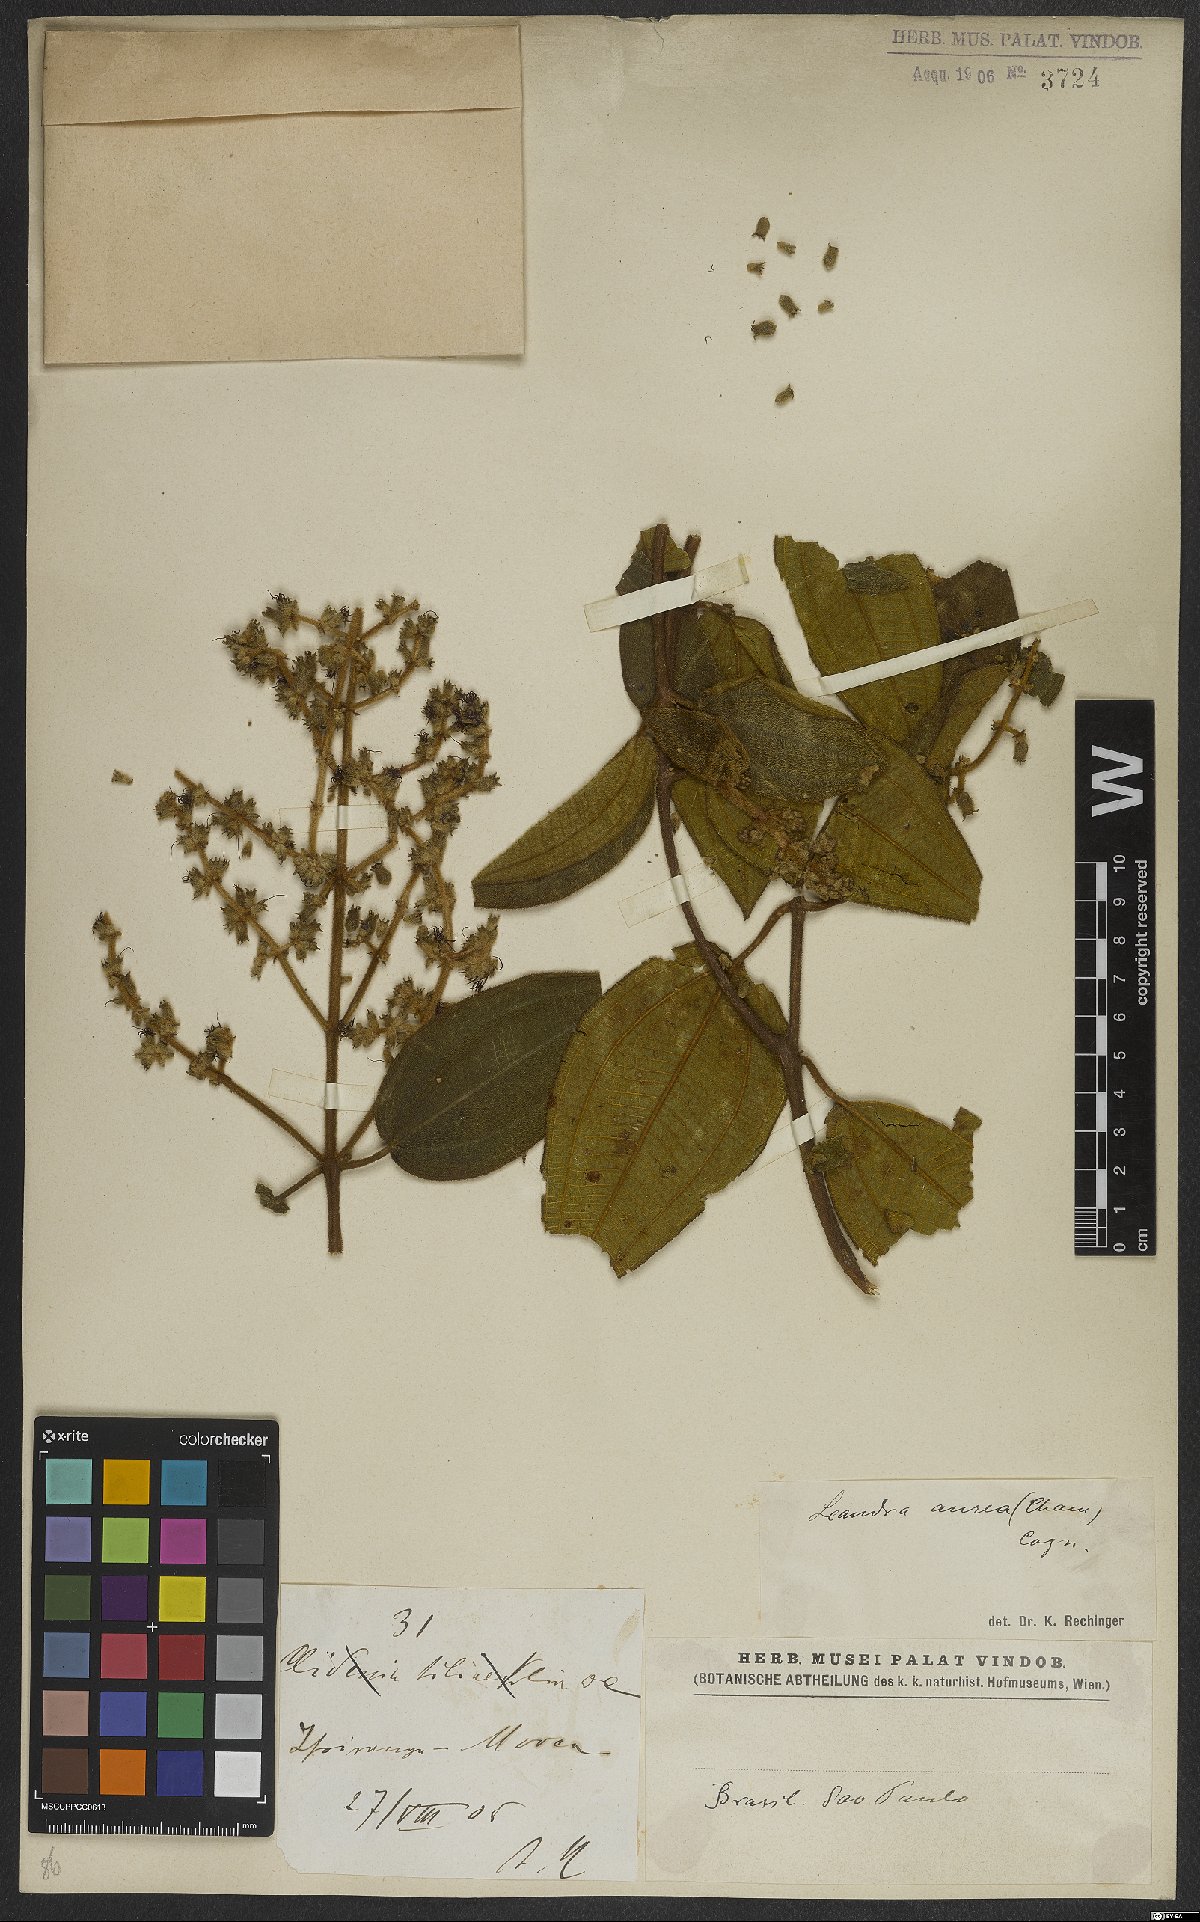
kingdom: Plantae
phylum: Tracheophyta
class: Magnoliopsida
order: Myrtales
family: Melastomataceae
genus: Miconia
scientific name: Miconia auricoma
